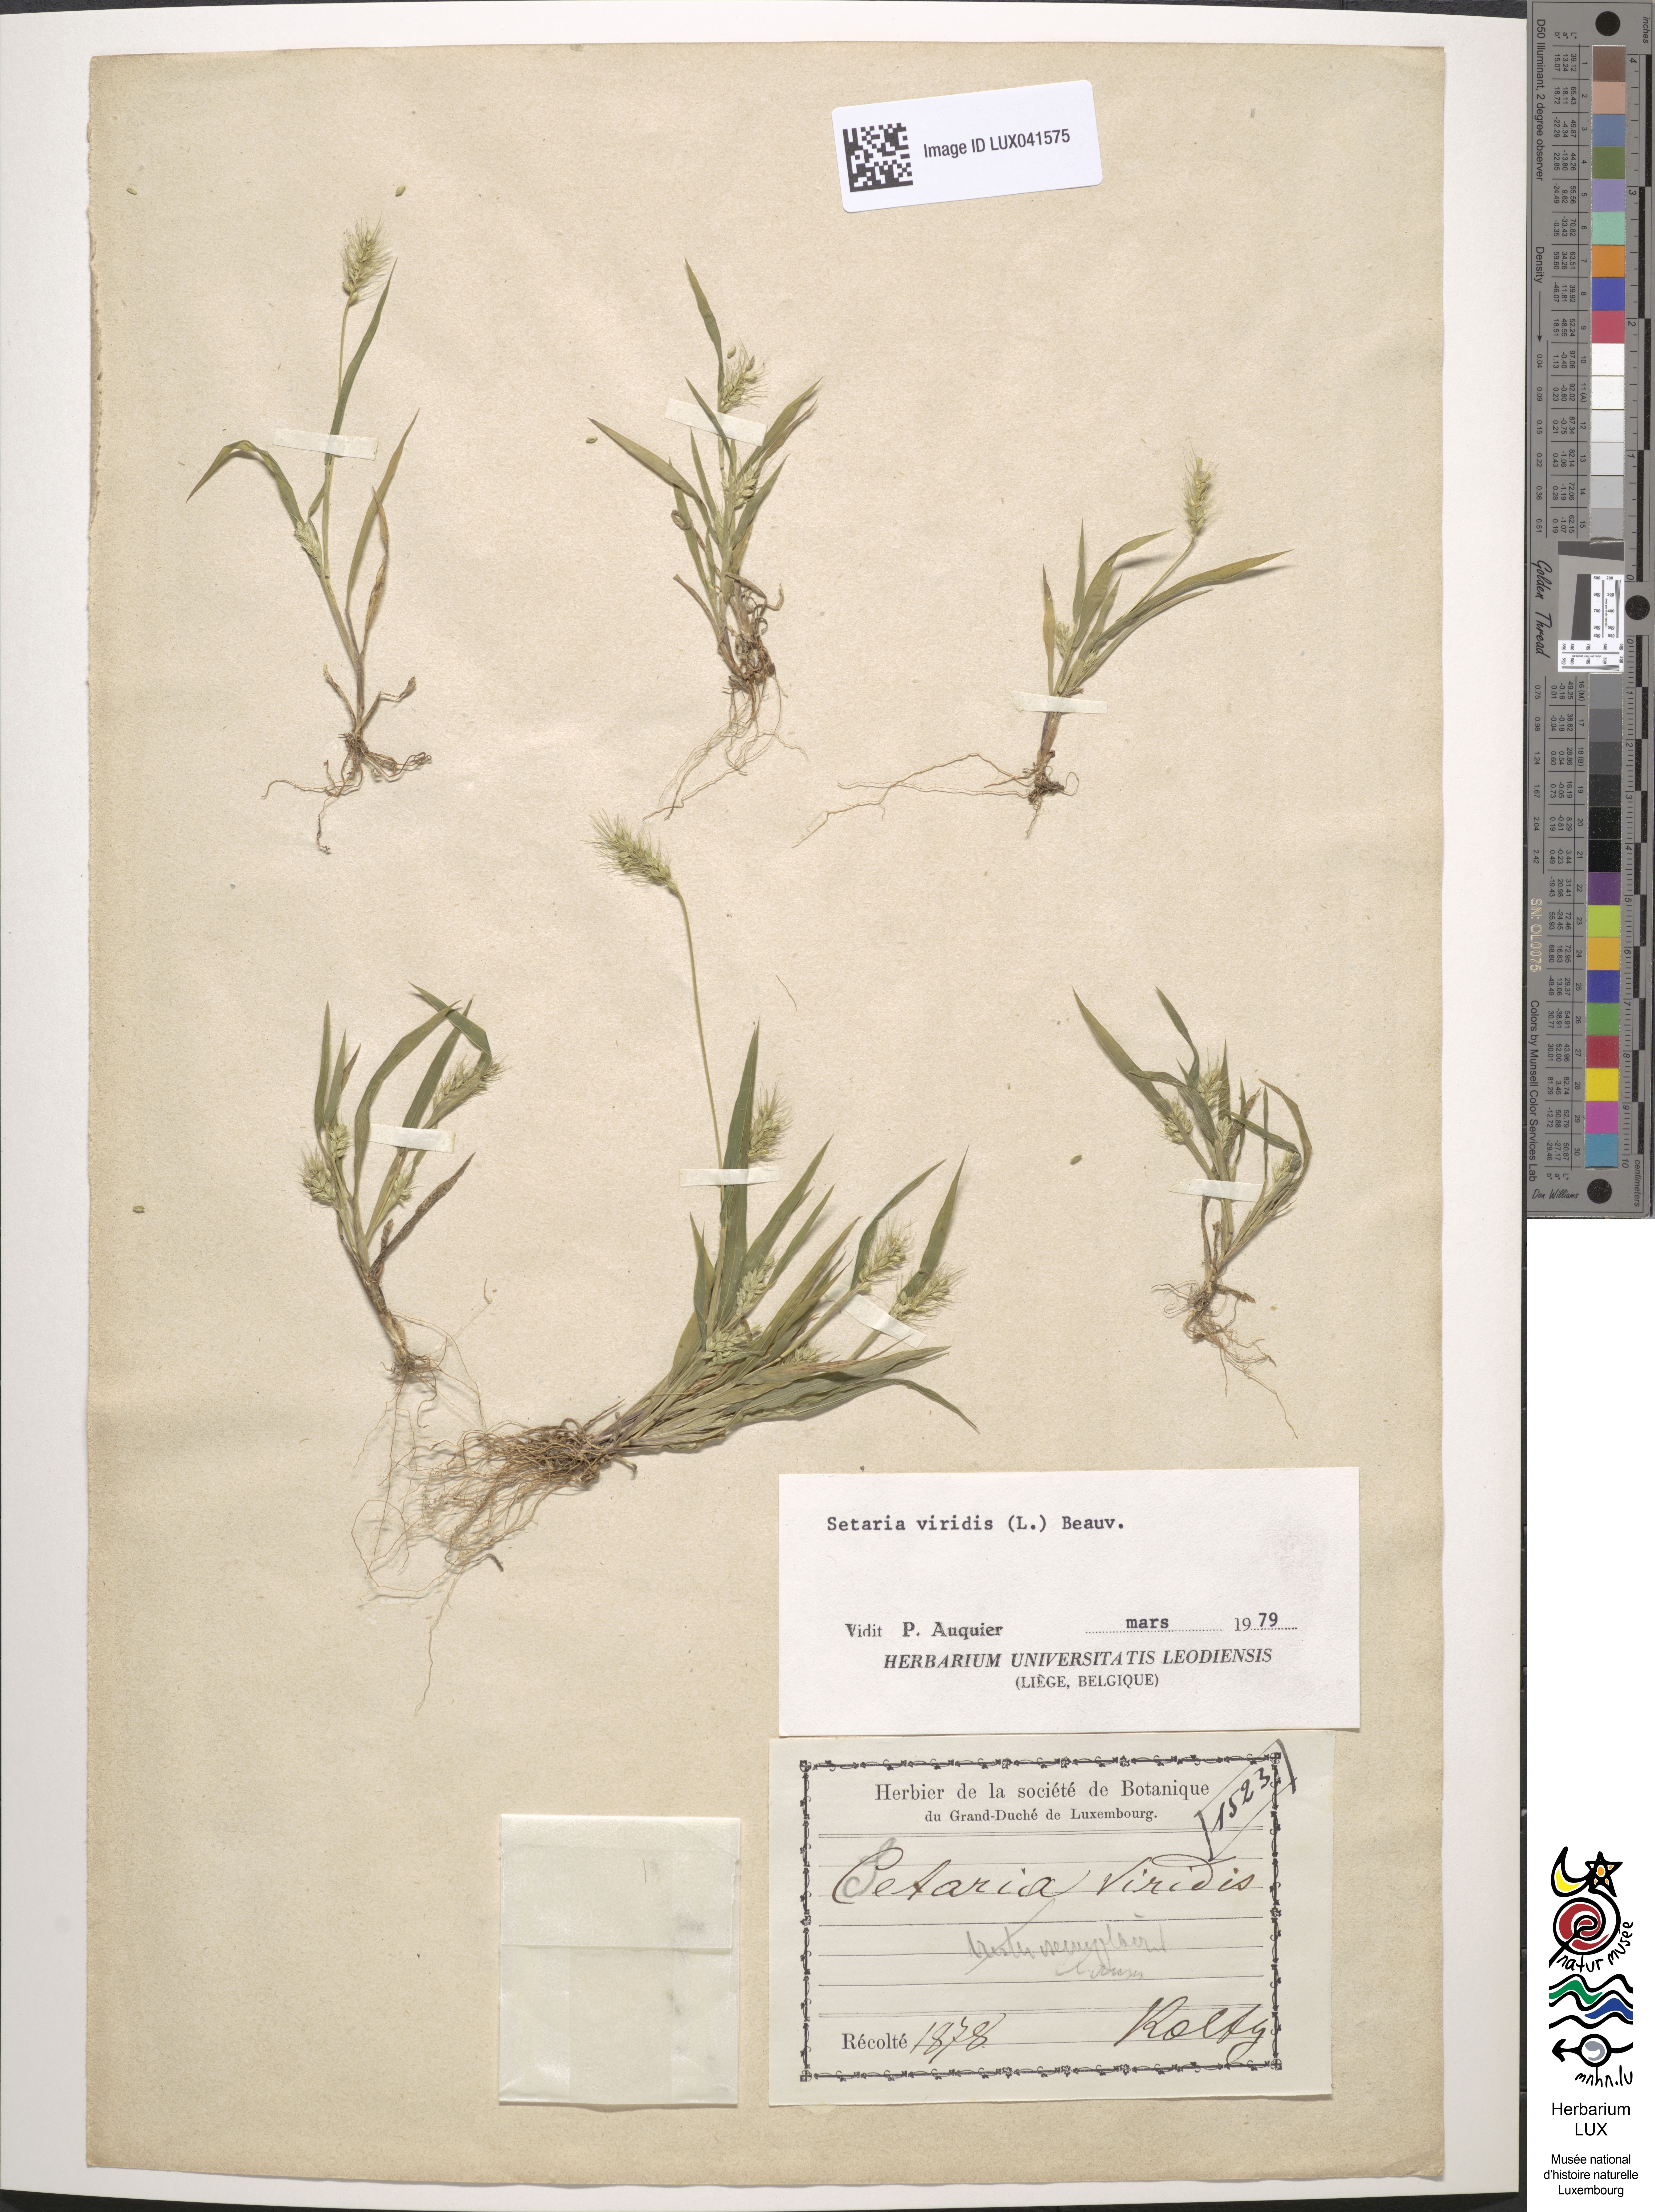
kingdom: Plantae
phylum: Tracheophyta
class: Liliopsida
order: Poales
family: Poaceae
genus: Setaria
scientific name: Setaria viridis
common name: Green bristlegrass
